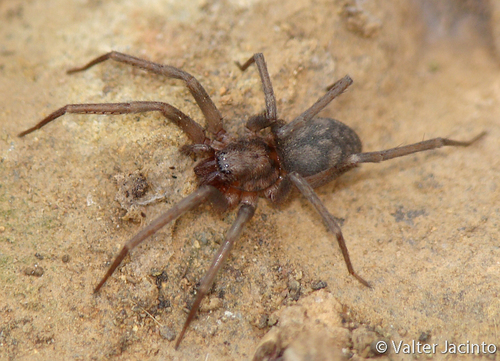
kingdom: Animalia
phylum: Arthropoda
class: Arachnida
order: Araneae
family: Liocranidae
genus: Liocranum
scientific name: Liocranum rupicola
